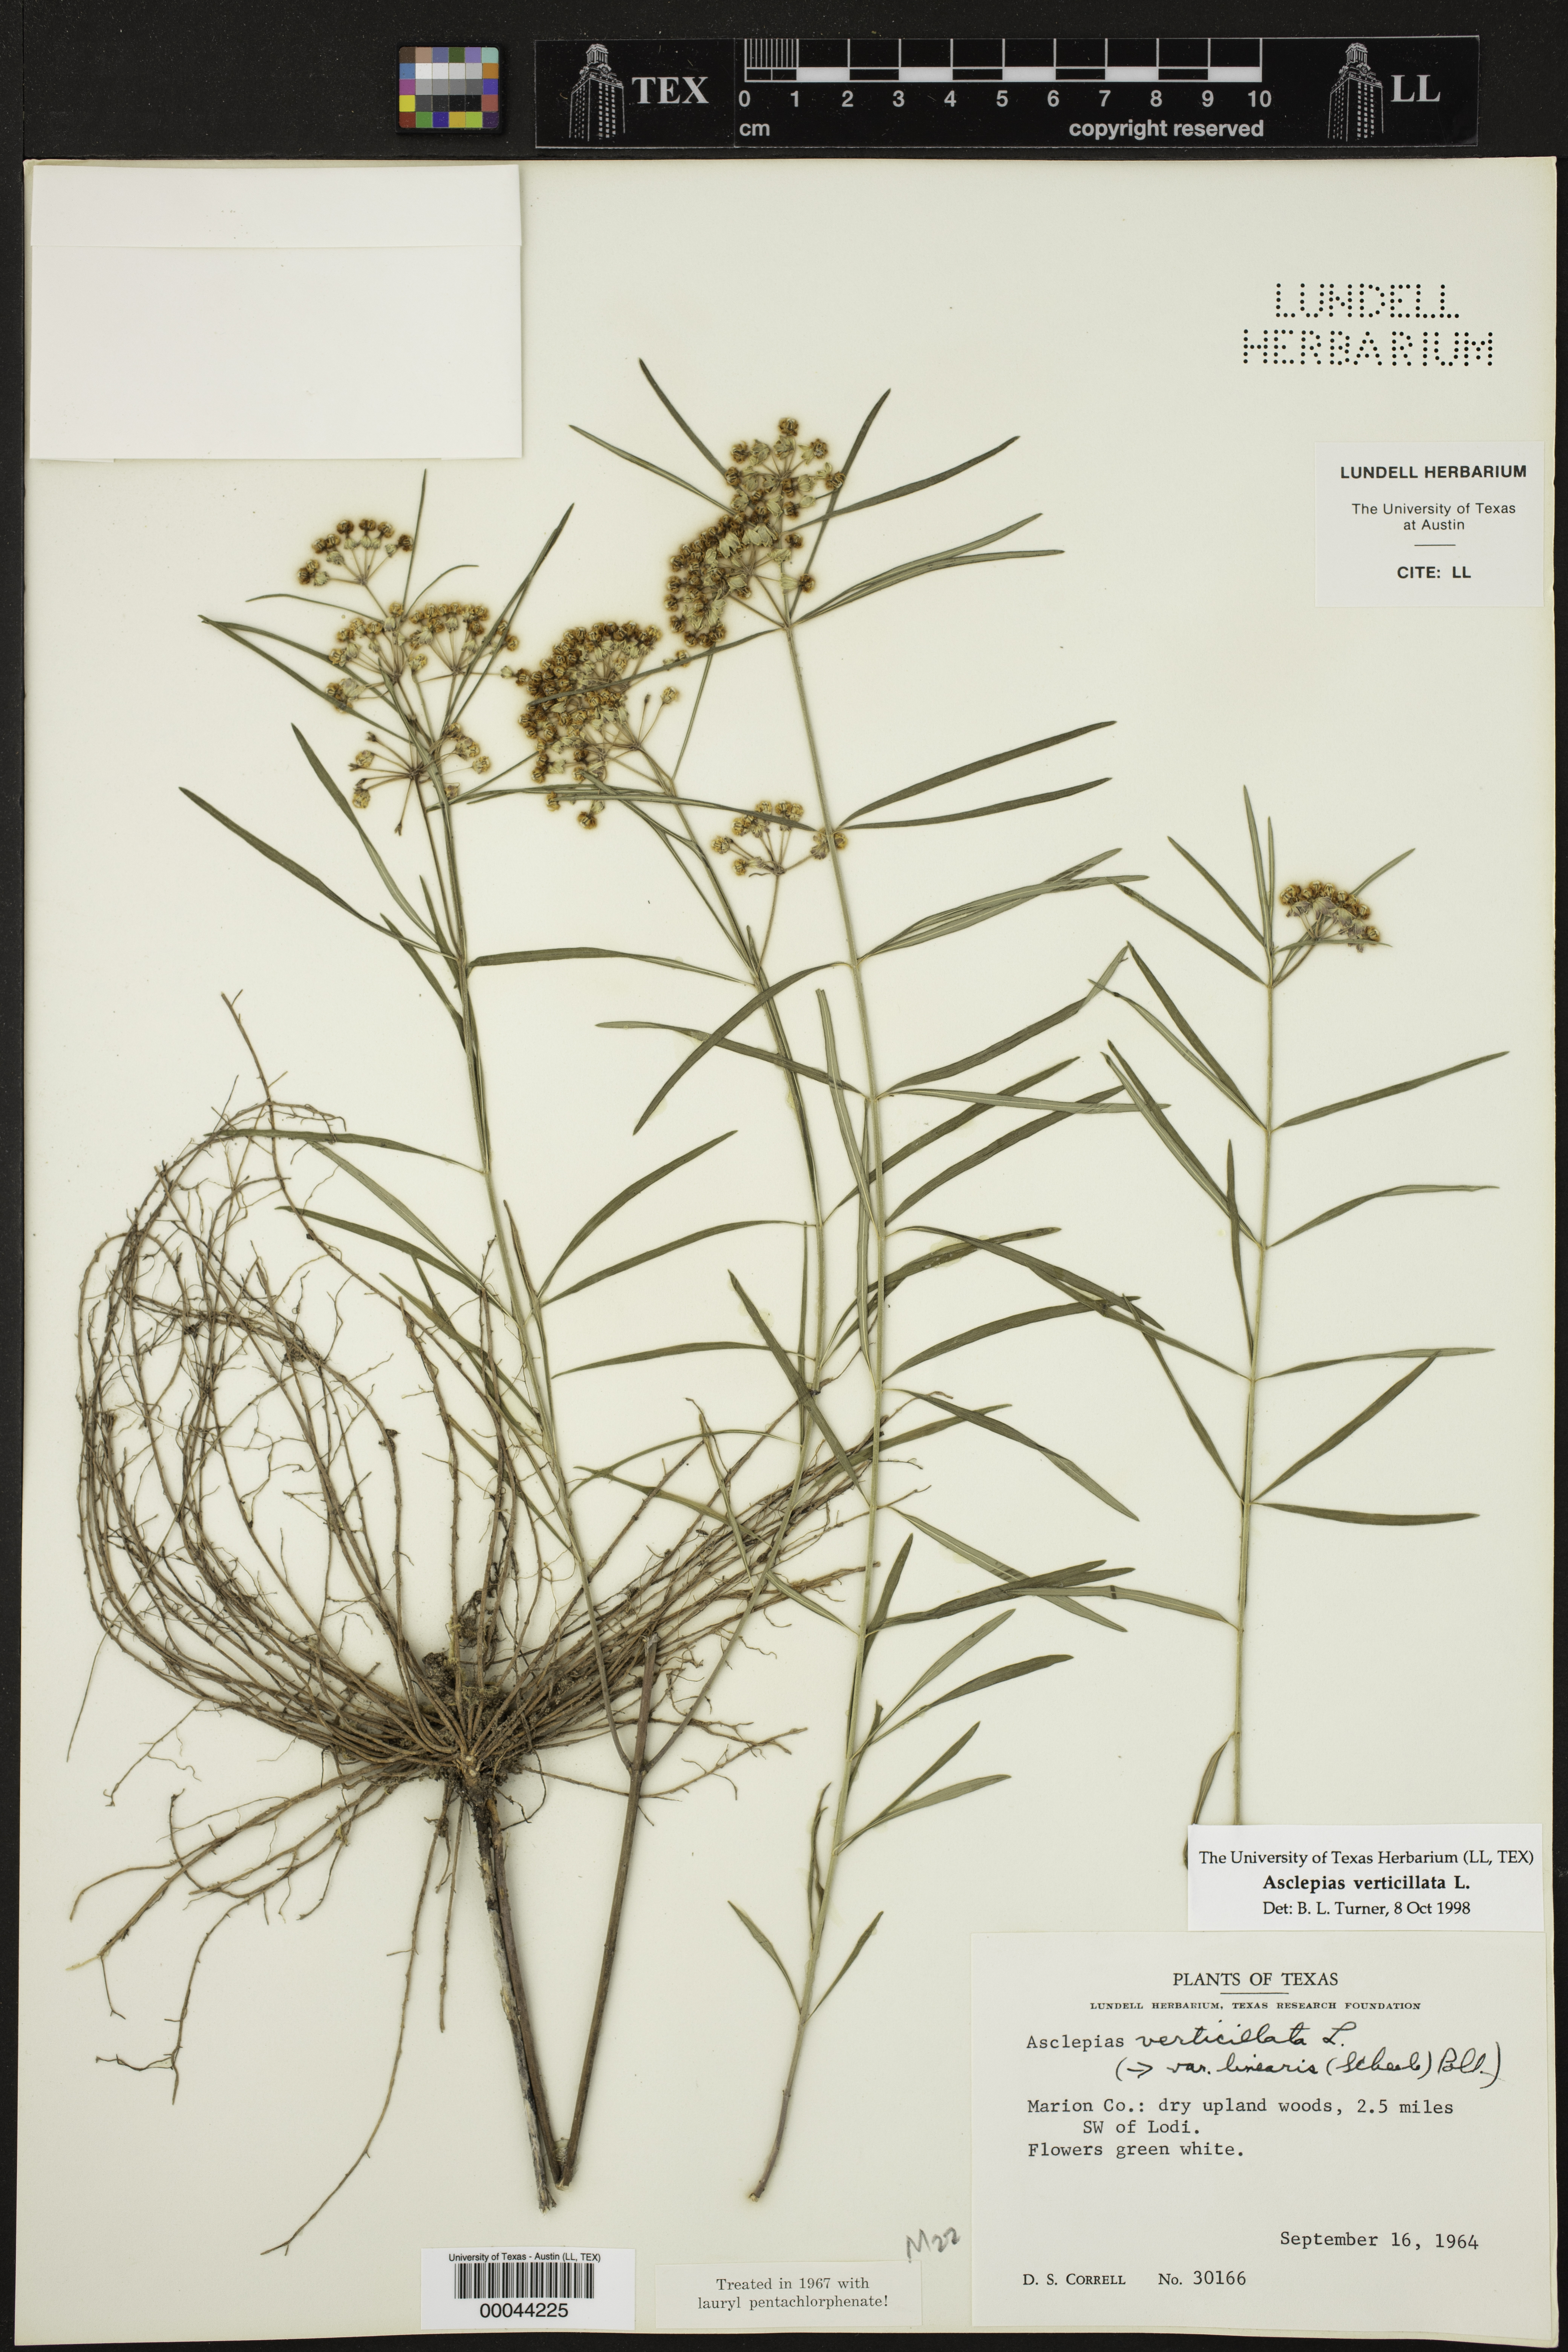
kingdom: Plantae
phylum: Tracheophyta
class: Magnoliopsida
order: Gentianales
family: Apocynaceae
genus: Asclepias
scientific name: Asclepias verticillata
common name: Eastern whorled milkweed
